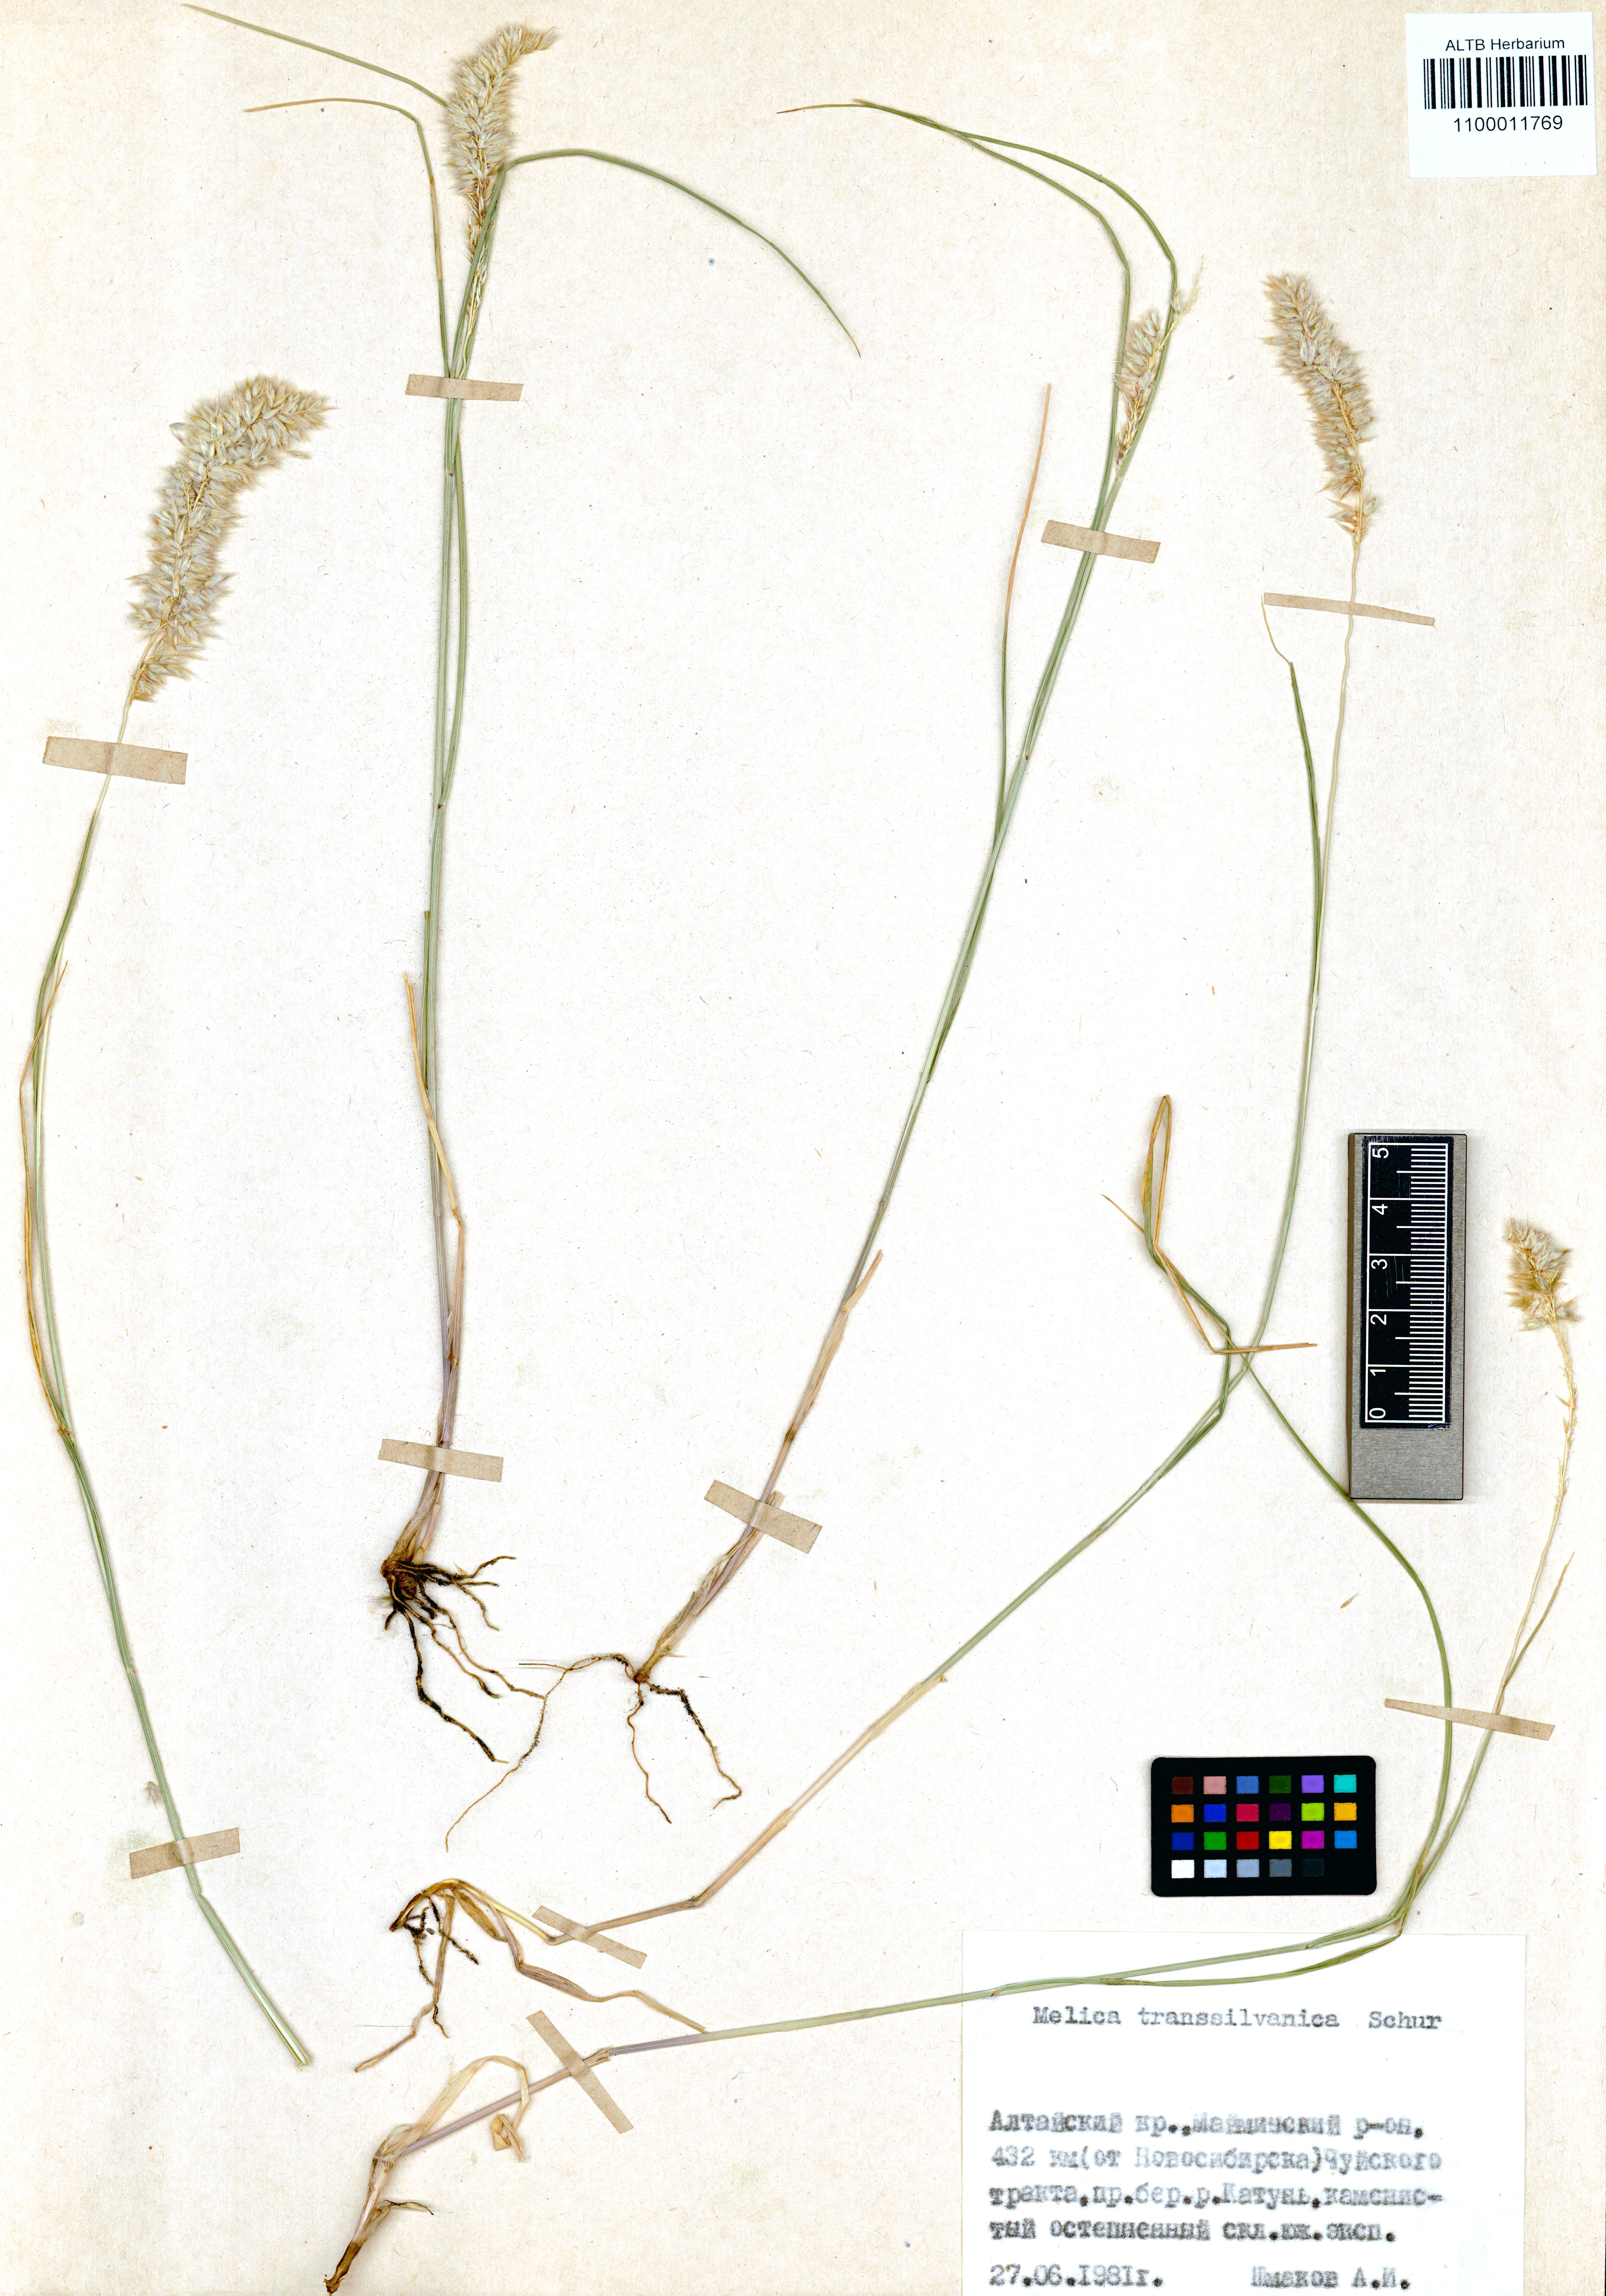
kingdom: Plantae
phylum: Tracheophyta
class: Liliopsida
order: Poales
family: Poaceae
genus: Melica
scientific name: Melica transsilvanica
